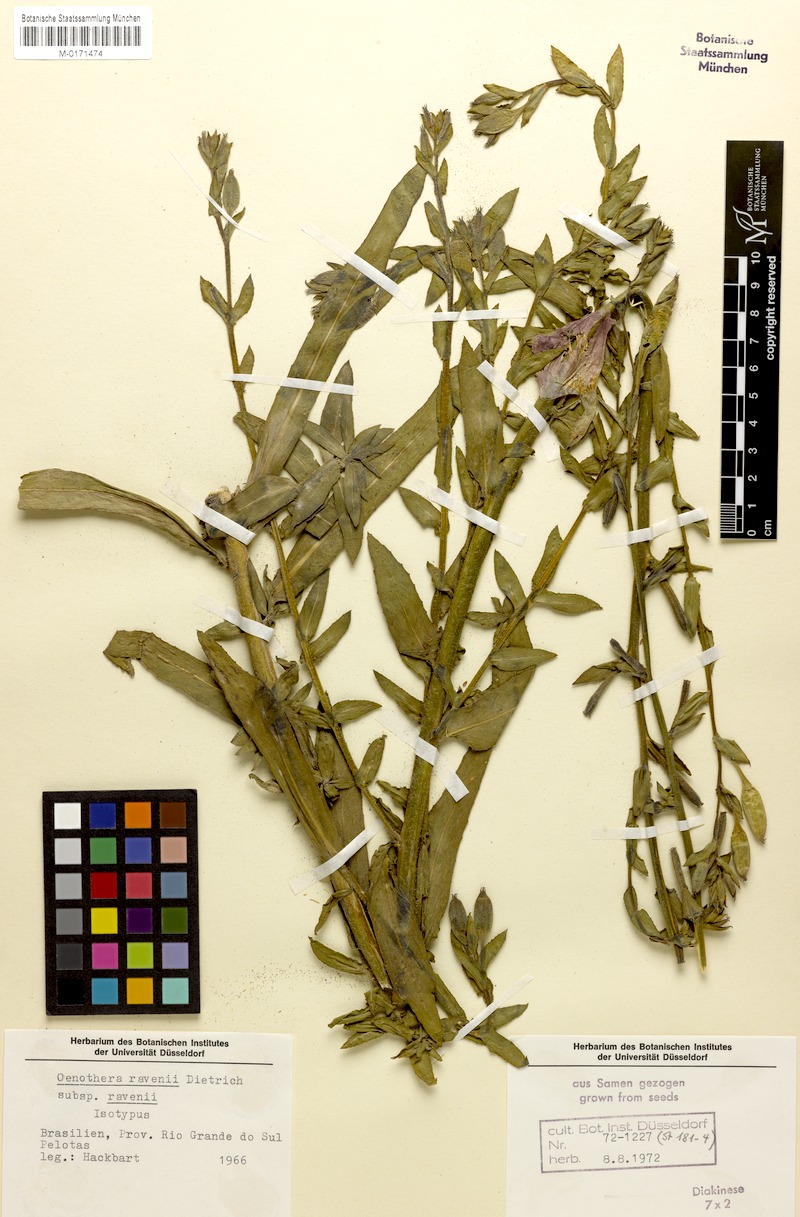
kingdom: Plantae
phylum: Tracheophyta
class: Magnoliopsida
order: Myrtales
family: Onagraceae
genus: Oenothera
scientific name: Oenothera ravenii
